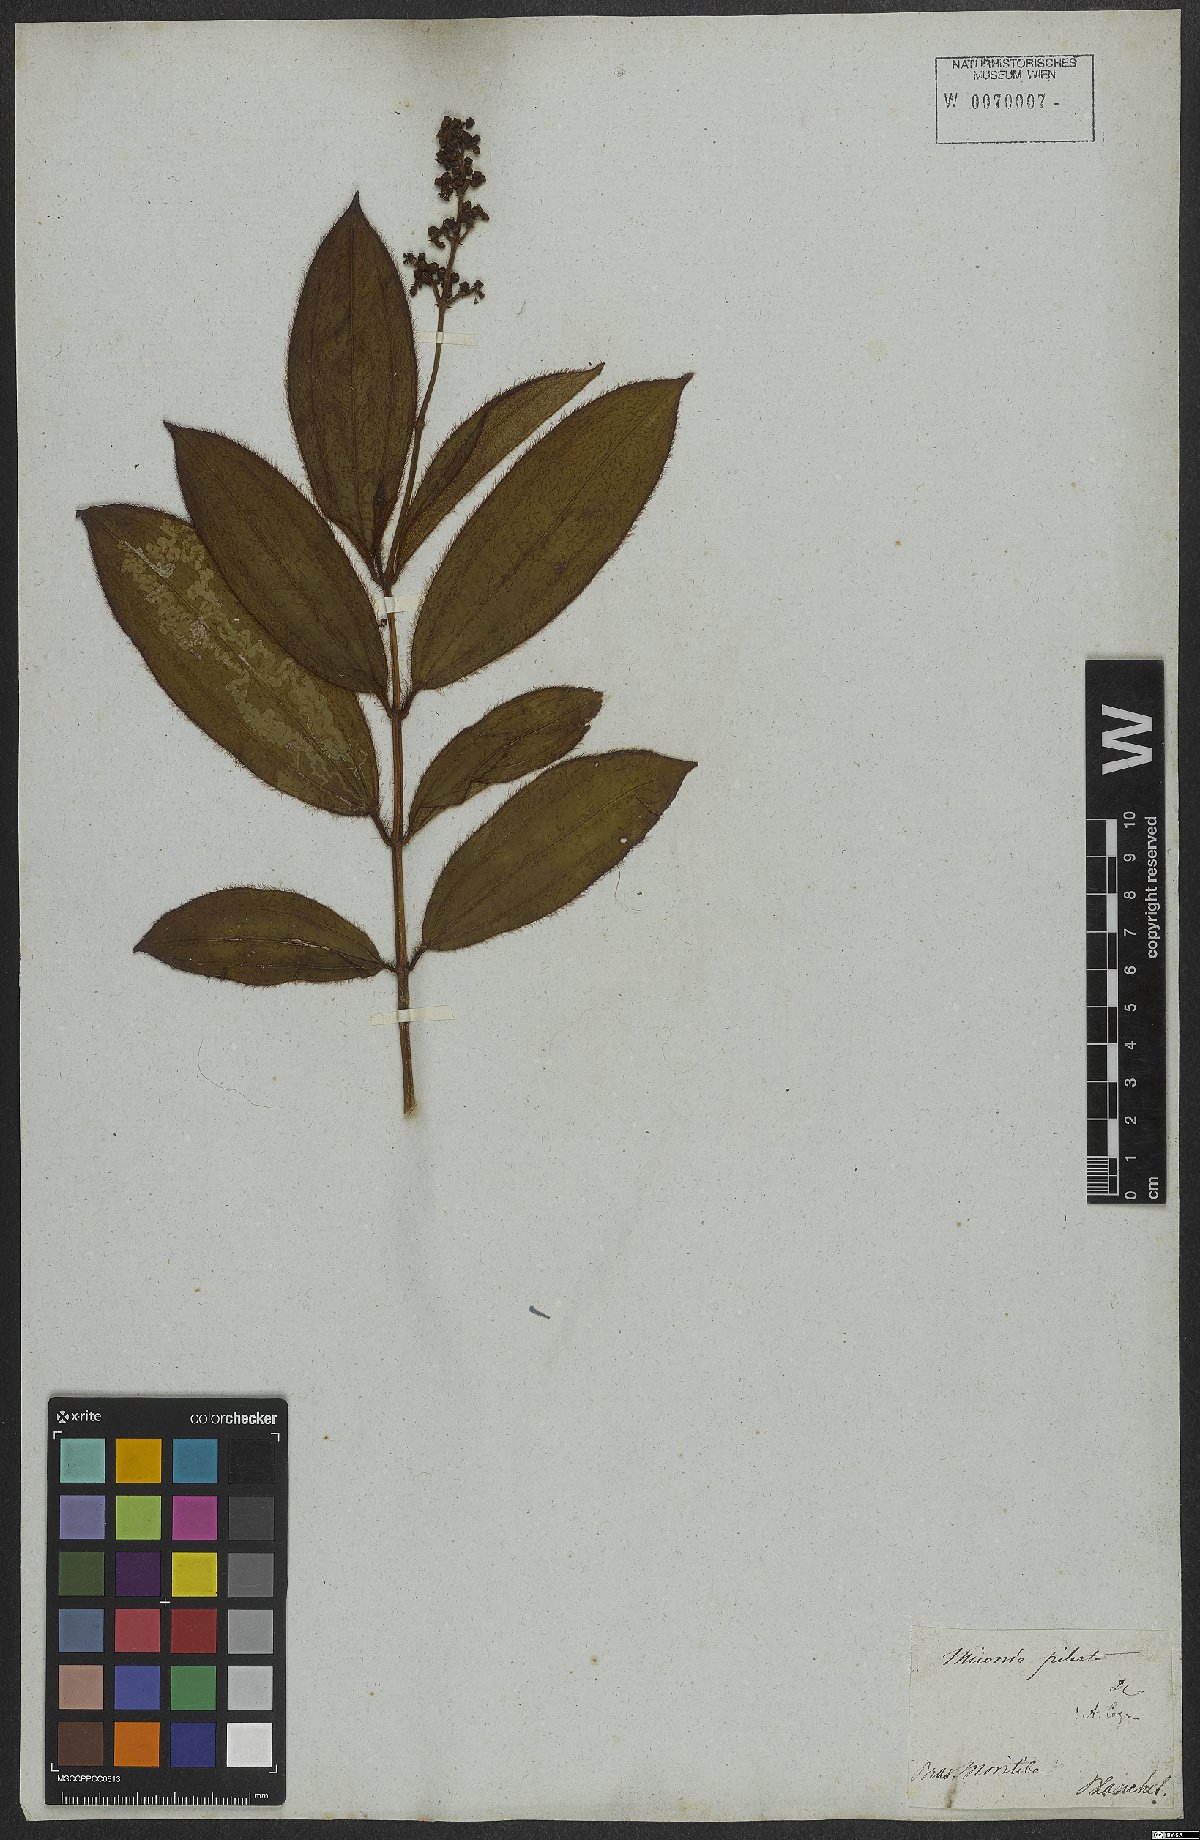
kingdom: Plantae
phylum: Tracheophyta
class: Magnoliopsida
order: Myrtales
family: Melastomataceae
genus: Miconia
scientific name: Miconia pileata
